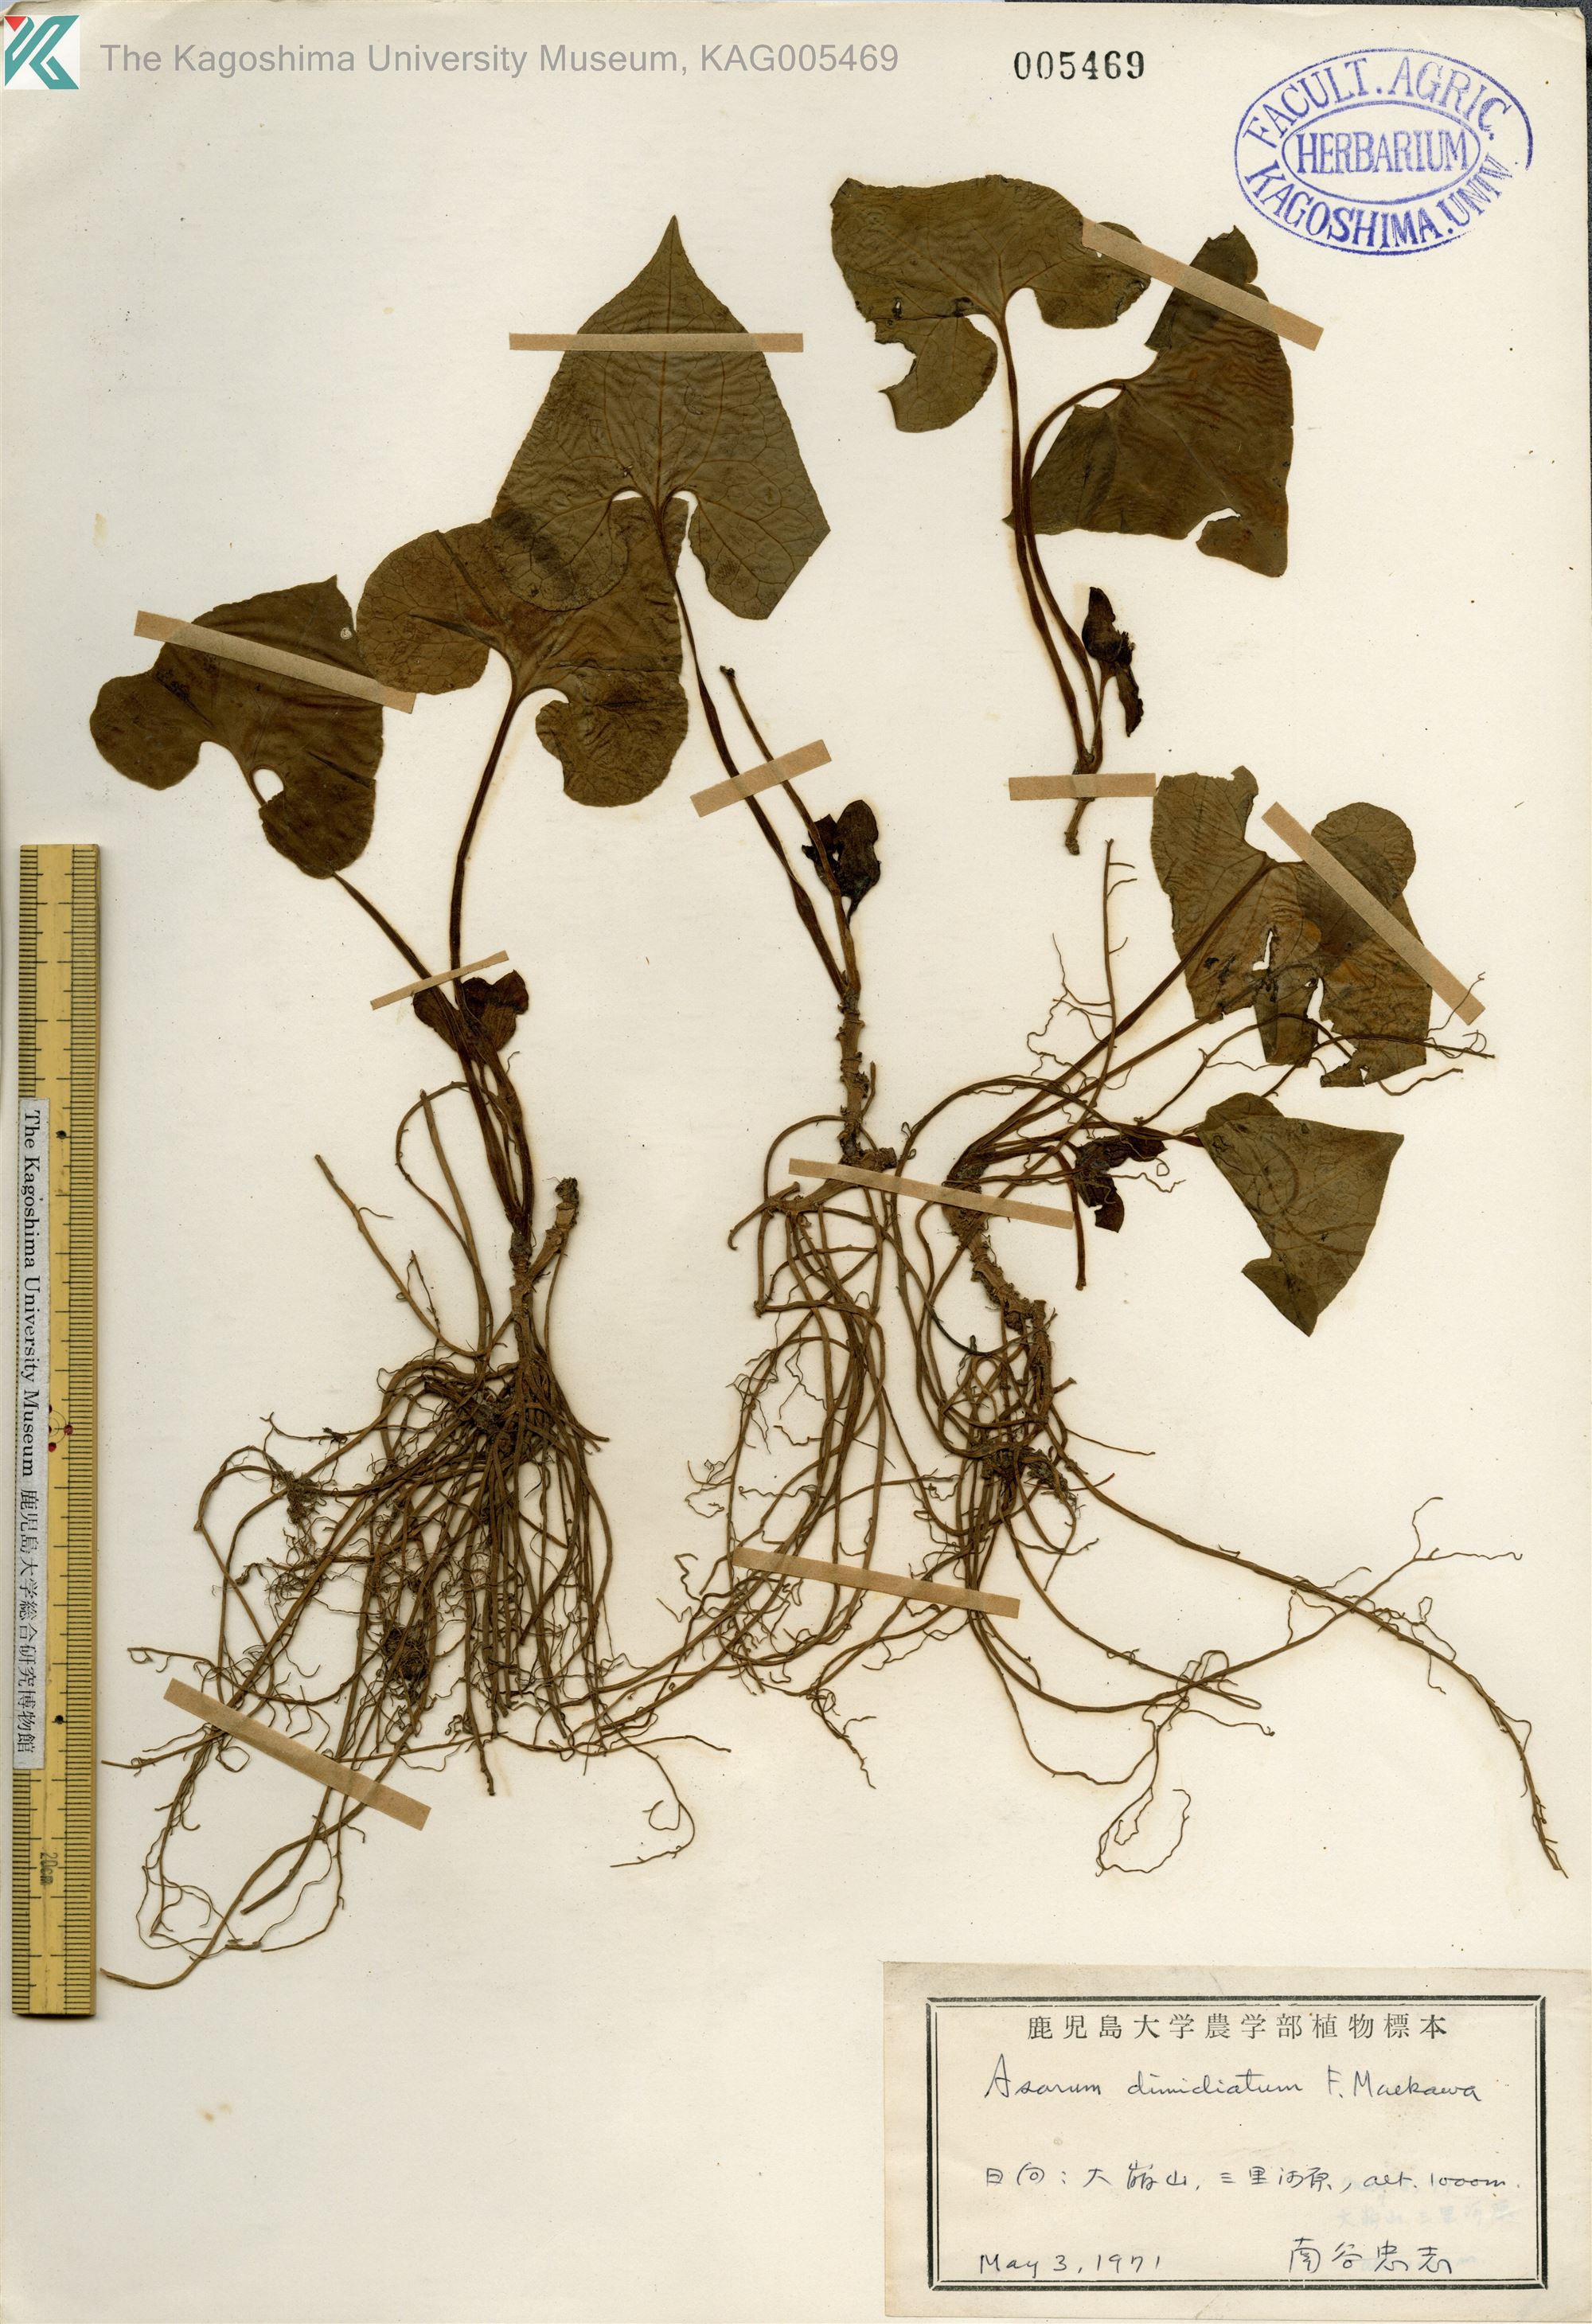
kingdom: Plantae
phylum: Tracheophyta
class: Magnoliopsida
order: Piperales
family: Aristolochiaceae
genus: Asarum
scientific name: Asarum sieboldii
